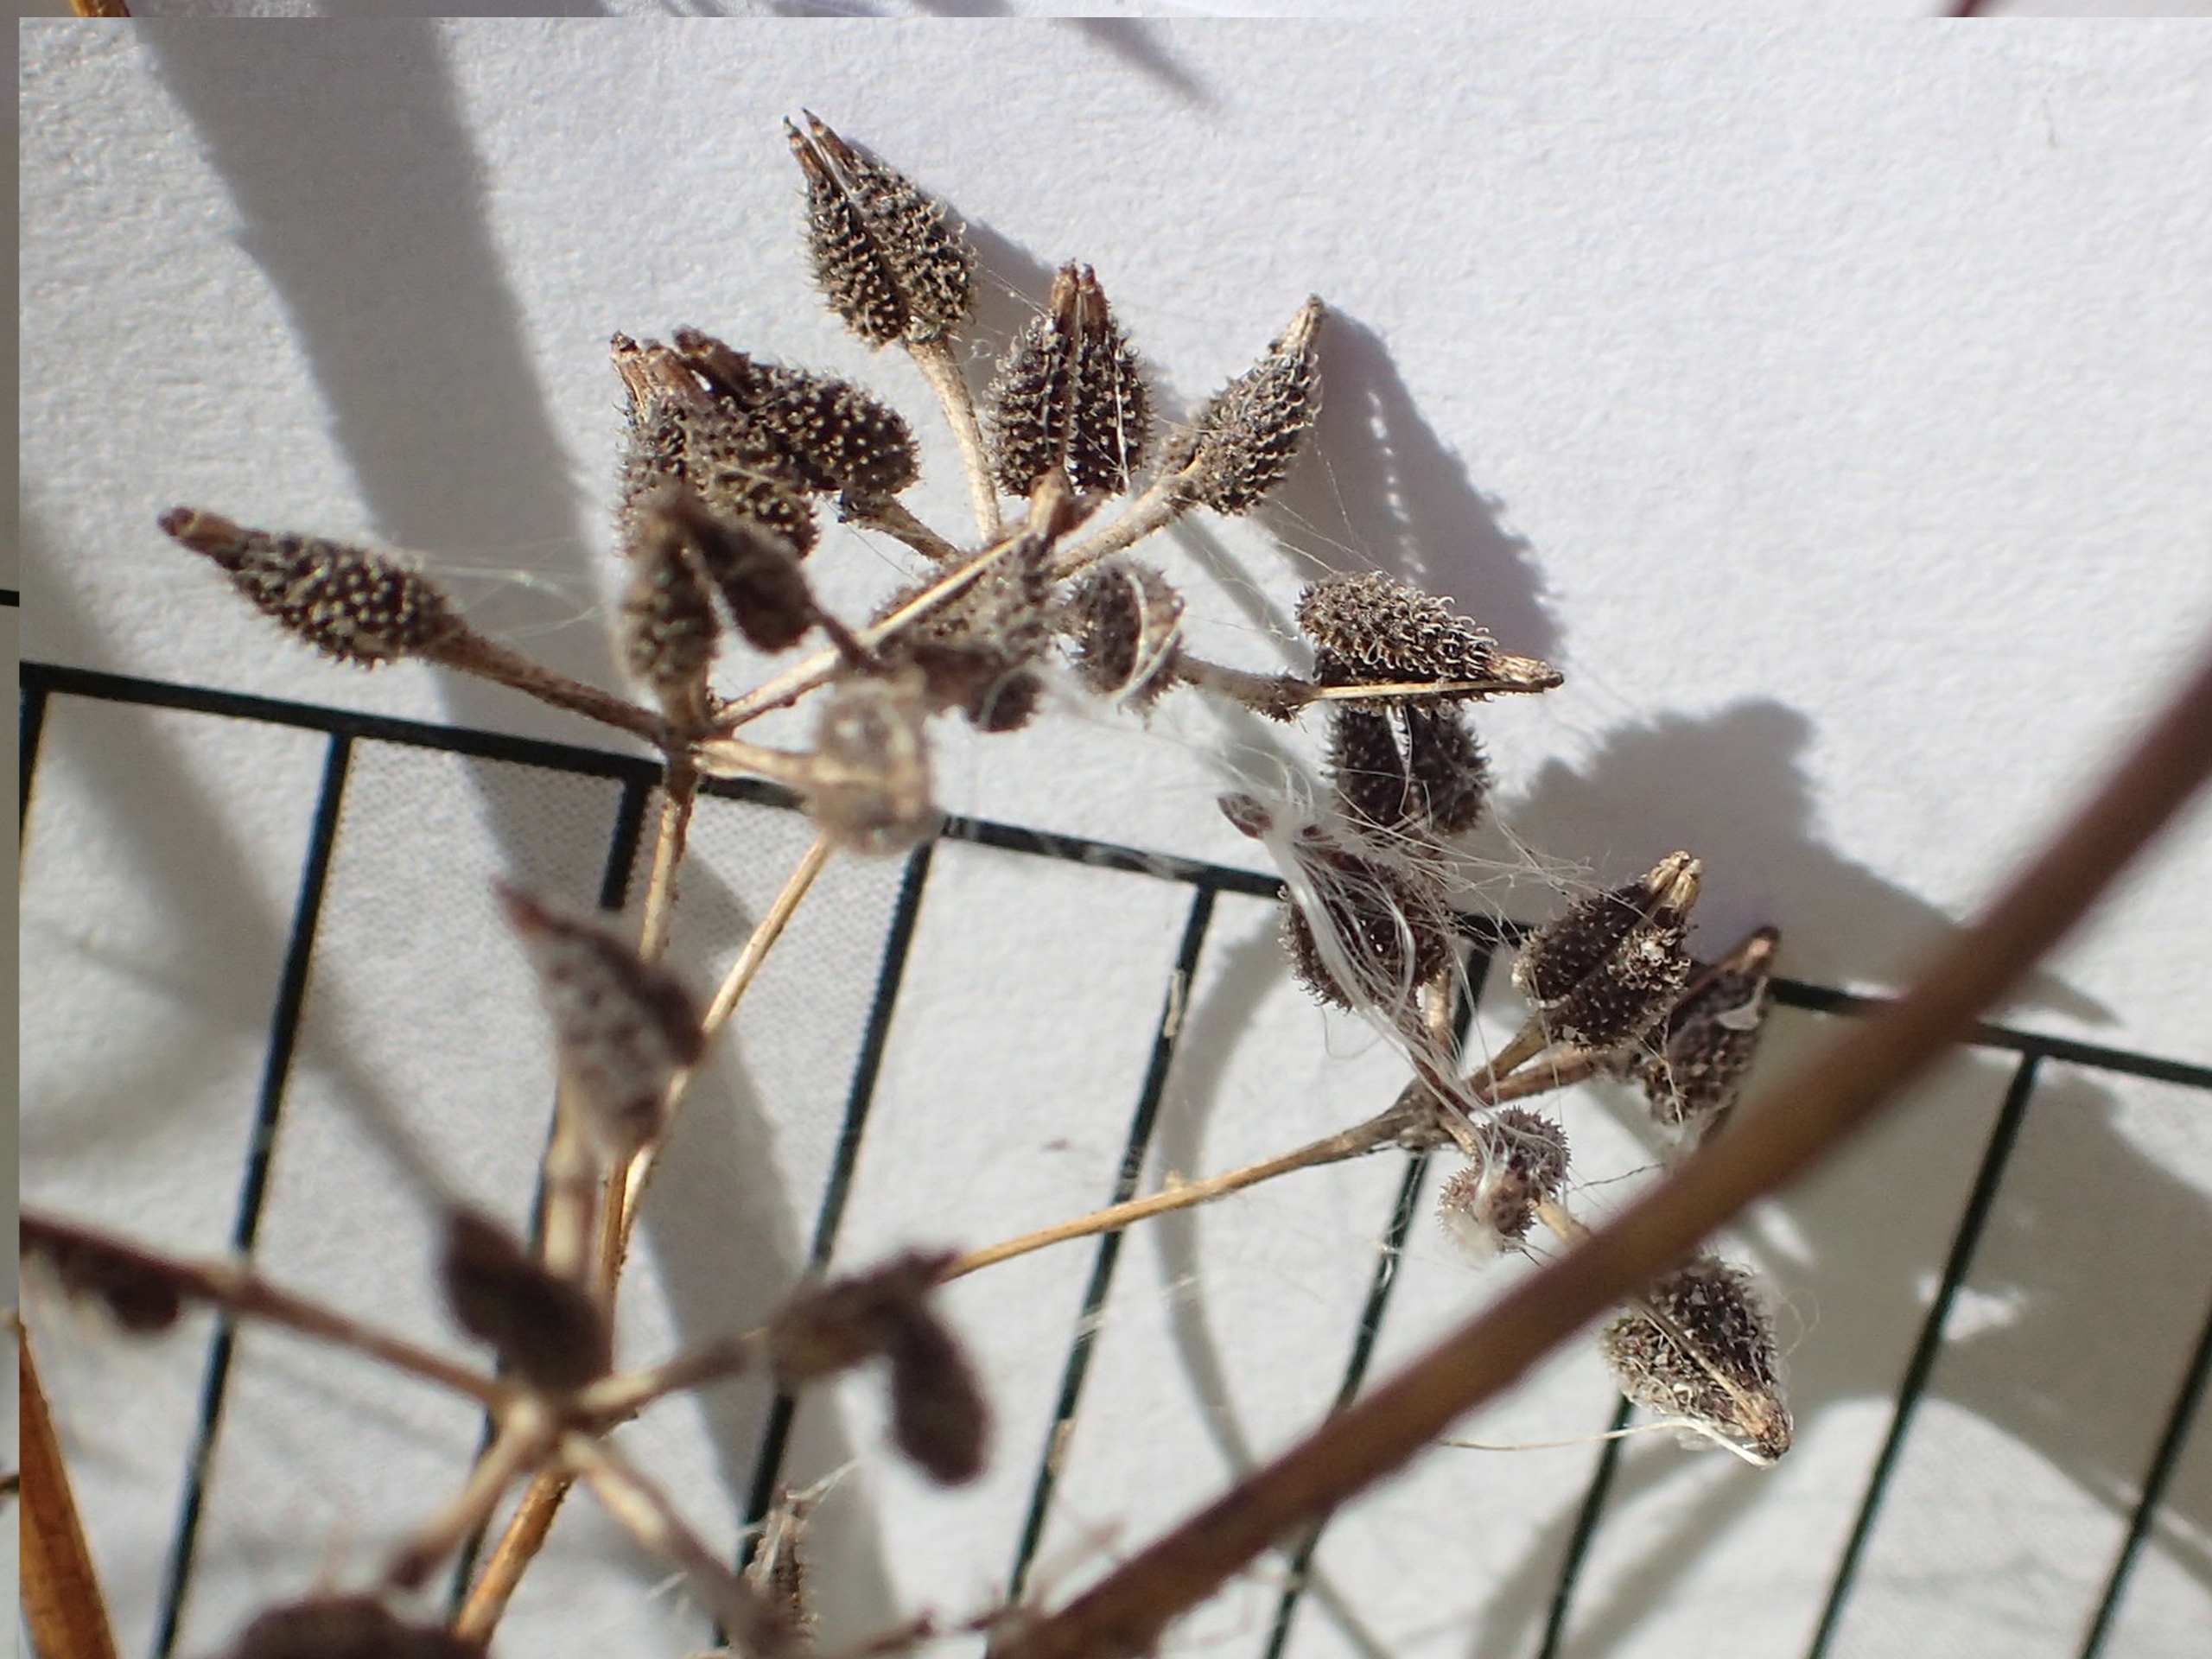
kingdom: Plantae
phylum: Tracheophyta
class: Magnoliopsida
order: Apiales
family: Apiaceae
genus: Anthriscus
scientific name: Anthriscus caucalis
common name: Gærde-kørvel
